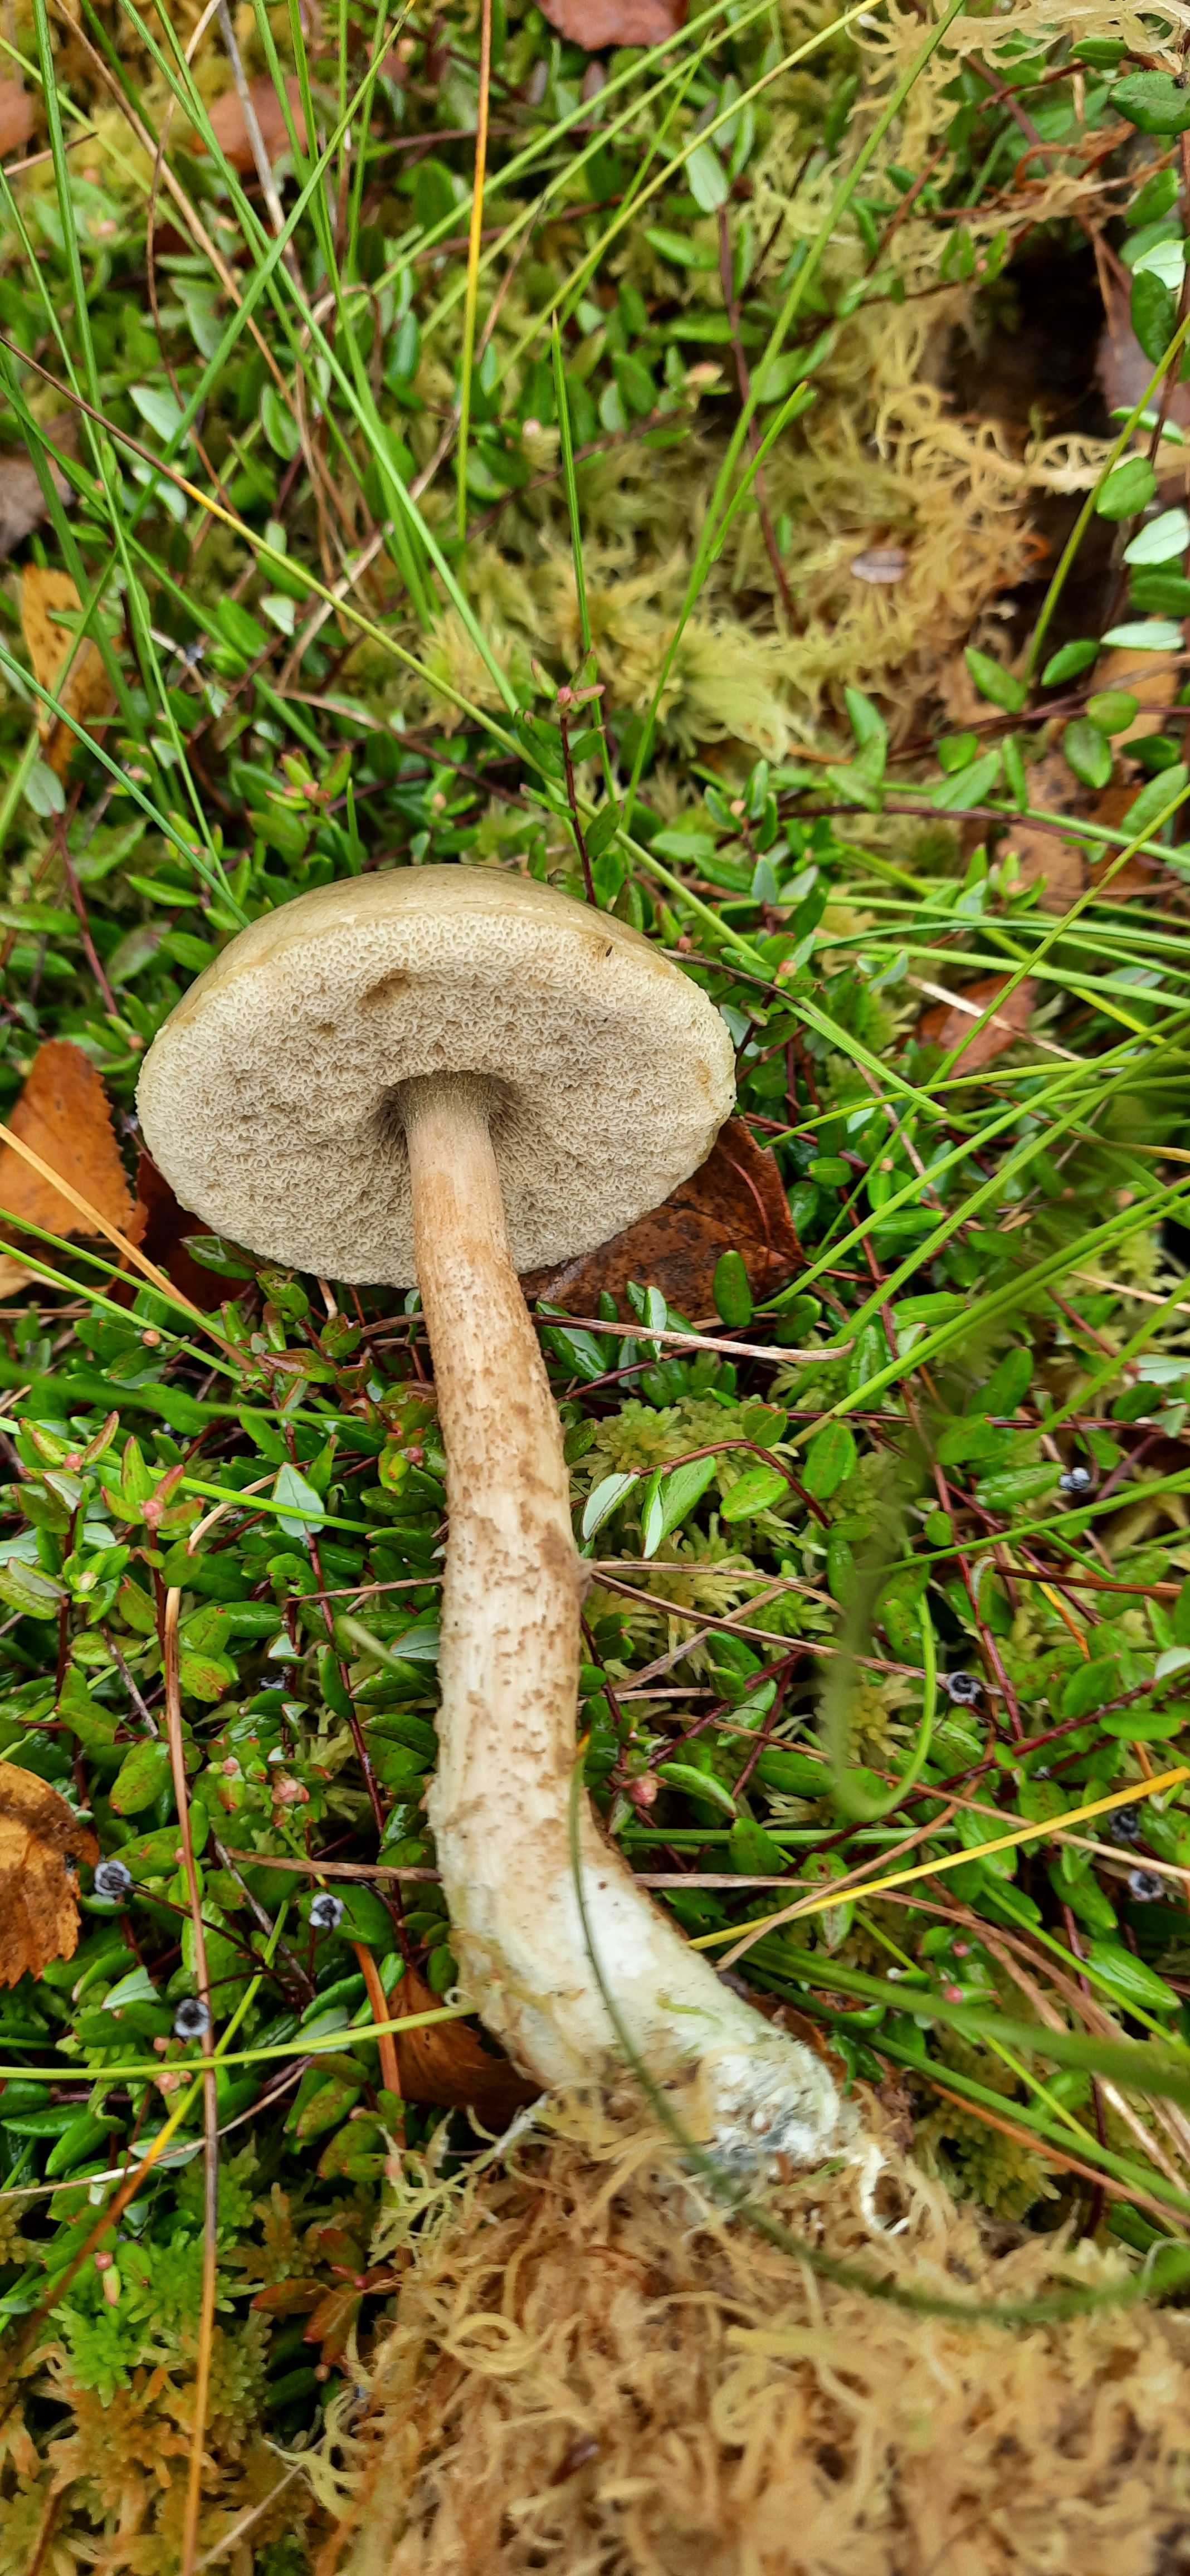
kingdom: Fungi
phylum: Basidiomycota
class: Agaricomycetes
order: Boletales
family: Boletaceae
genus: Leccinum
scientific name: Leccinum
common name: skælrørhat
